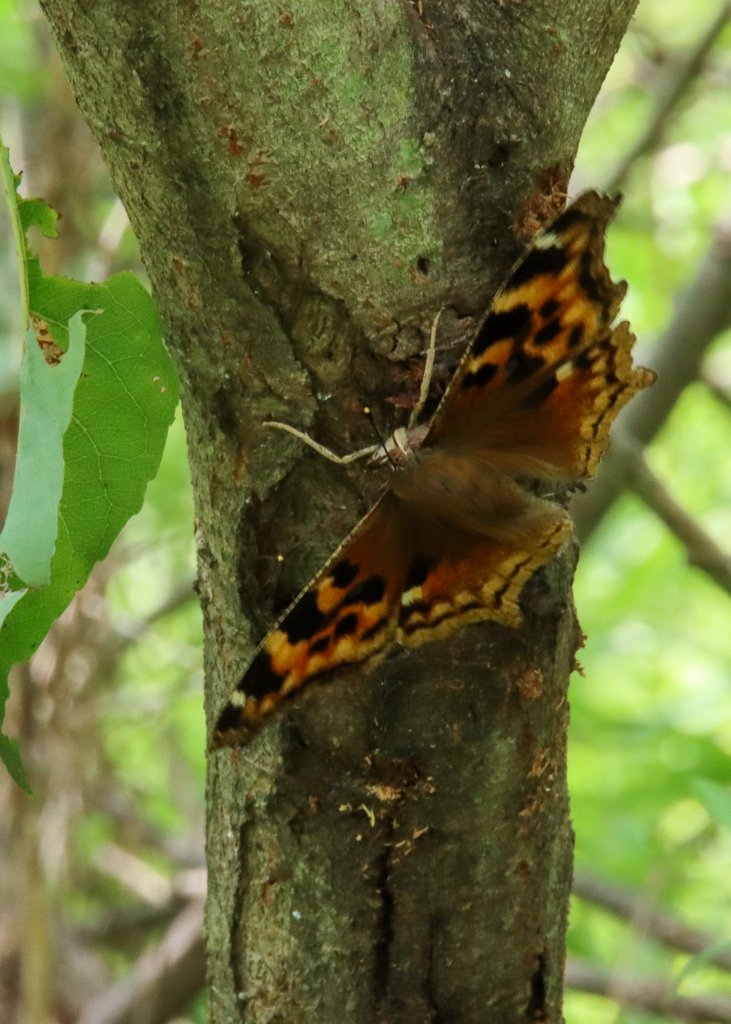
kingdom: Animalia
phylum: Arthropoda
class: Insecta
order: Lepidoptera
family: Nymphalidae
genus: Polygonia
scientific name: Polygonia vaualbum
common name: Compton Tortoiseshell
